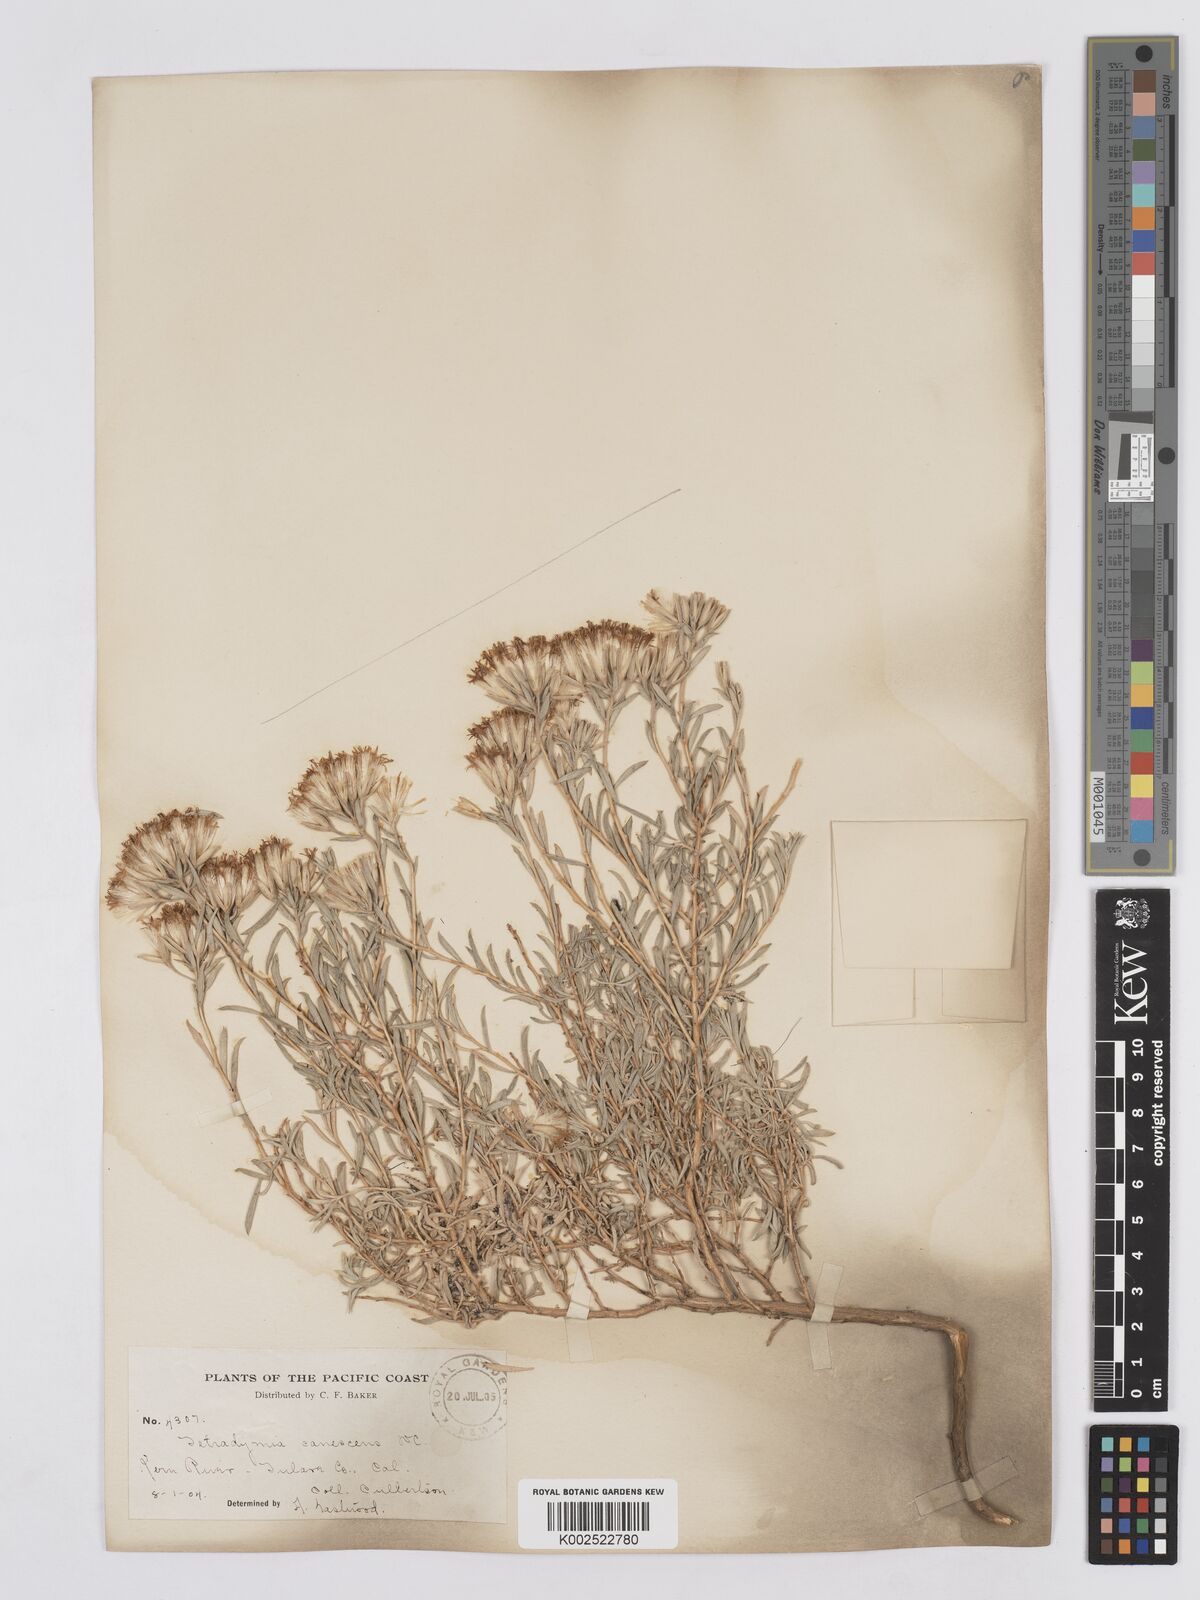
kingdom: Plantae
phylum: Tracheophyta
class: Magnoliopsida
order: Asterales
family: Asteraceae
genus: Tetradymia
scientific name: Tetradymia canescens
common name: Spineless horsebrush
